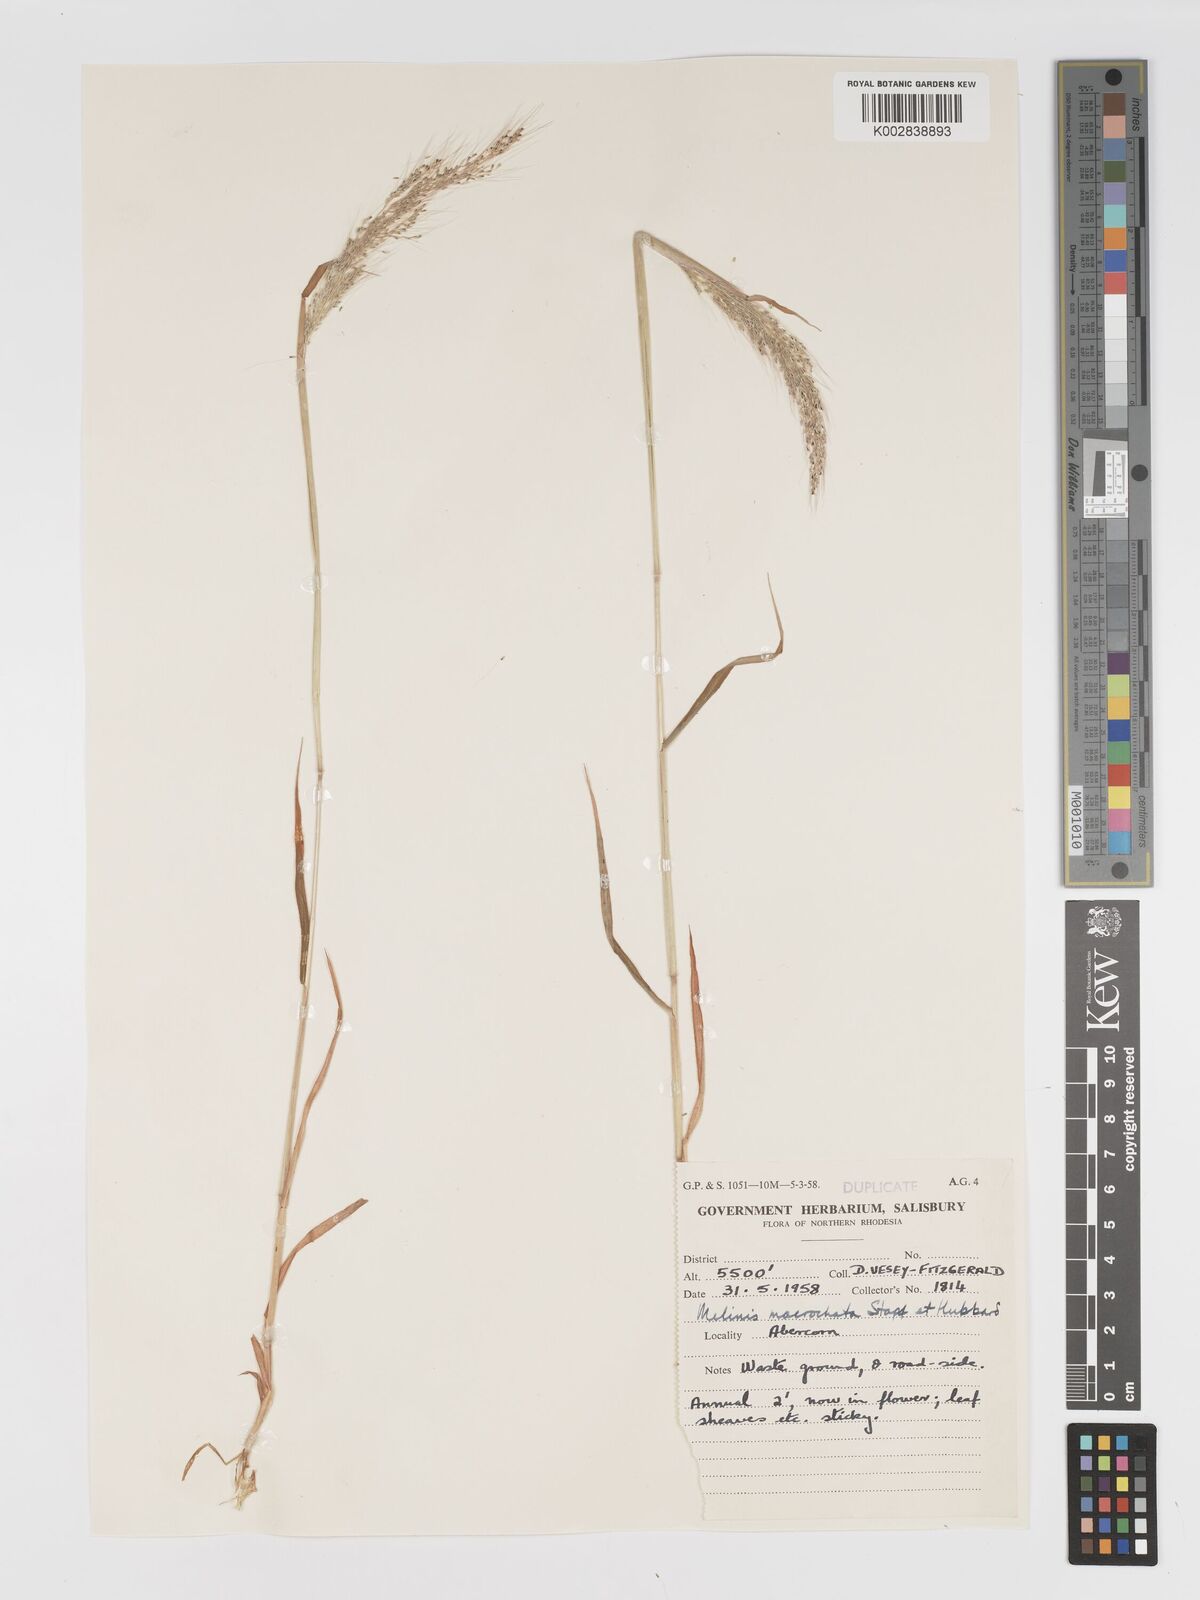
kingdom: Plantae
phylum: Tracheophyta
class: Liliopsida
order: Poales
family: Poaceae
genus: Melinis
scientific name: Melinis macrochaeta
